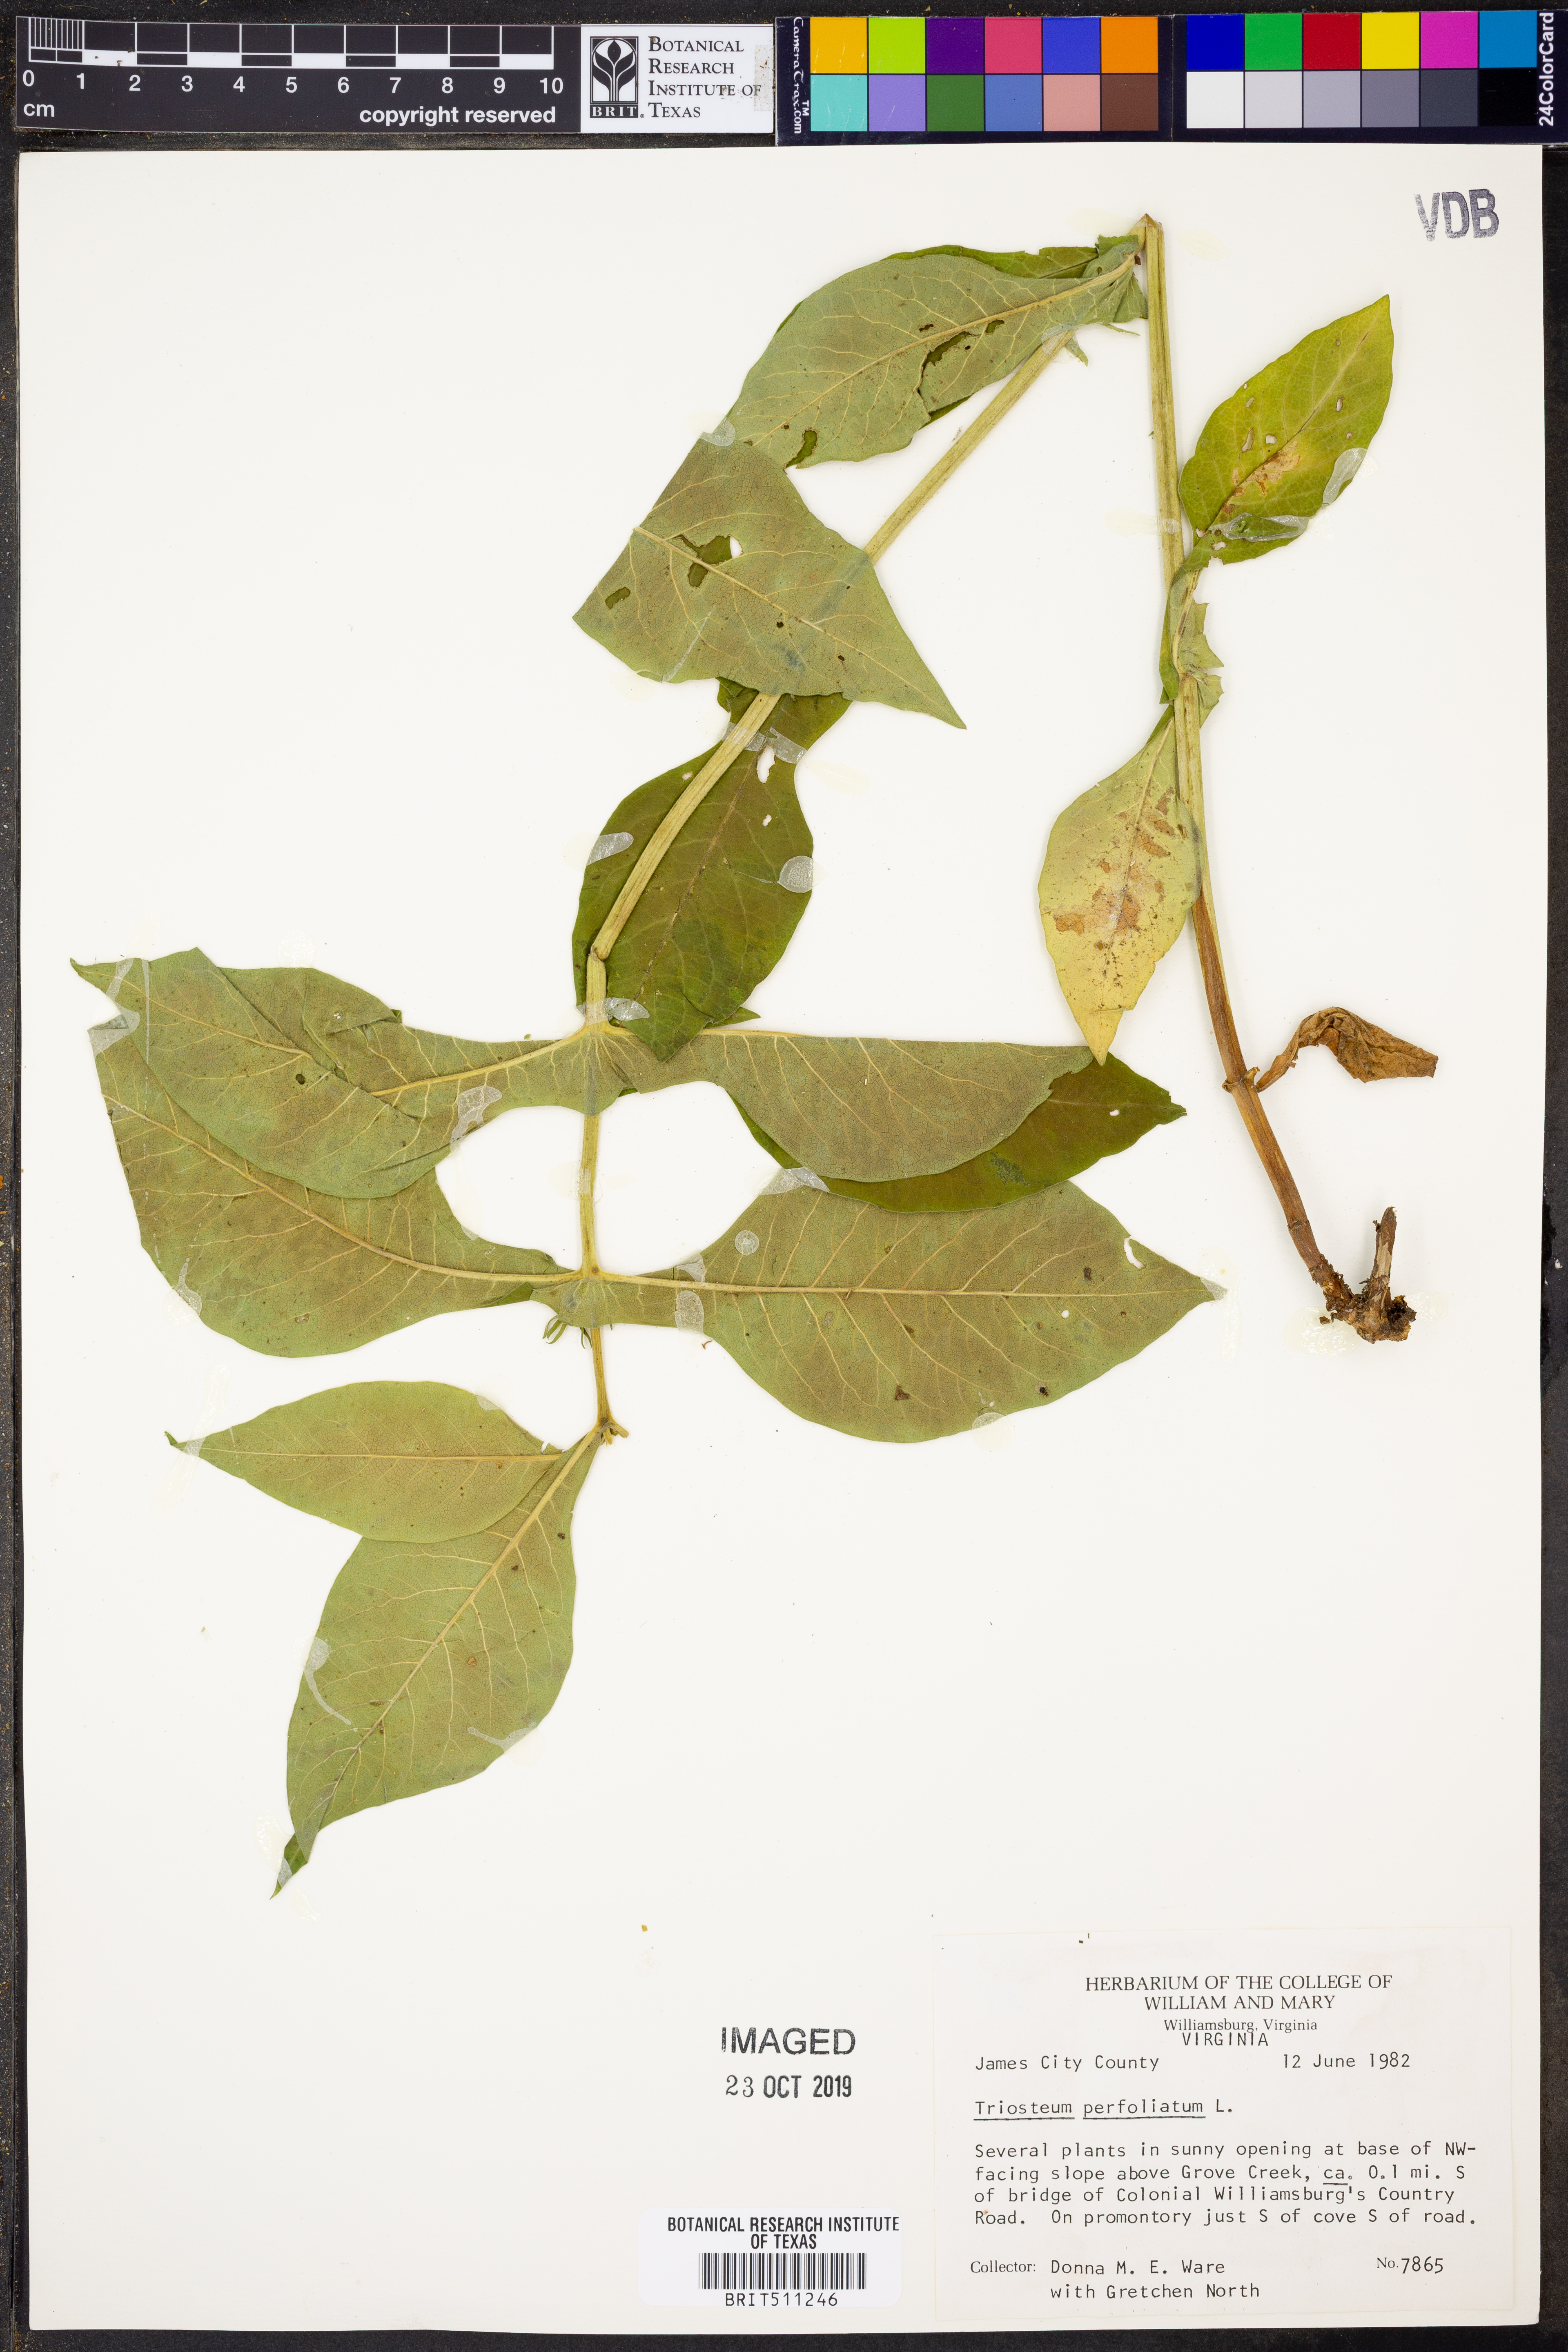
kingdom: Plantae
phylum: Tracheophyta
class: Magnoliopsida
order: Dipsacales
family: Caprifoliaceae
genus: Triosteum
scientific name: Triosteum perfoliatum
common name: Common horse-gentian
